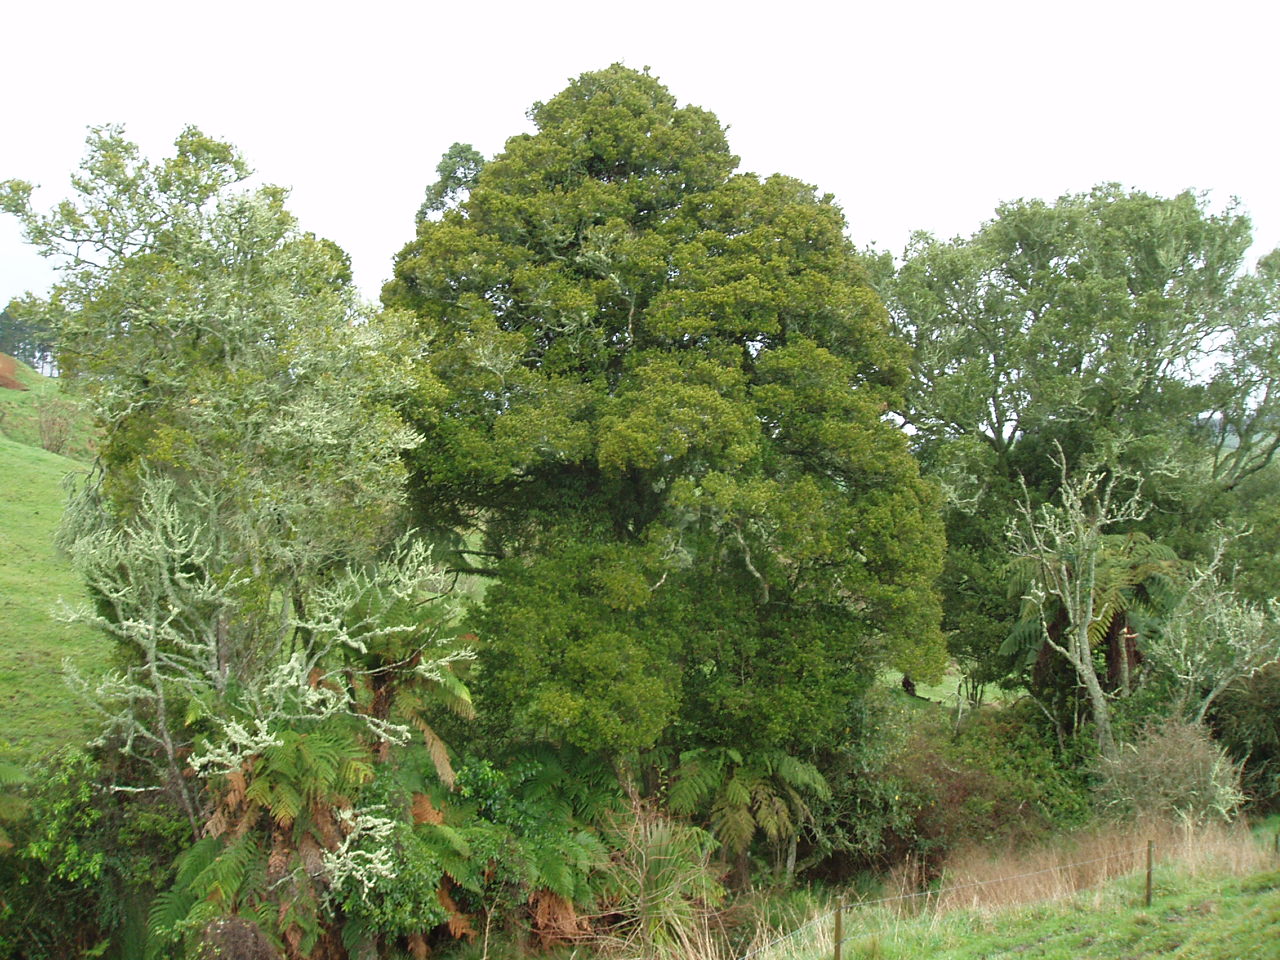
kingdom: Plantae
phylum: Tracheophyta
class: Magnoliopsida
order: Myrtales
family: Myrtaceae
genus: Syzygium
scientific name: Syzygium australe
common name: Australian brush-cherry
